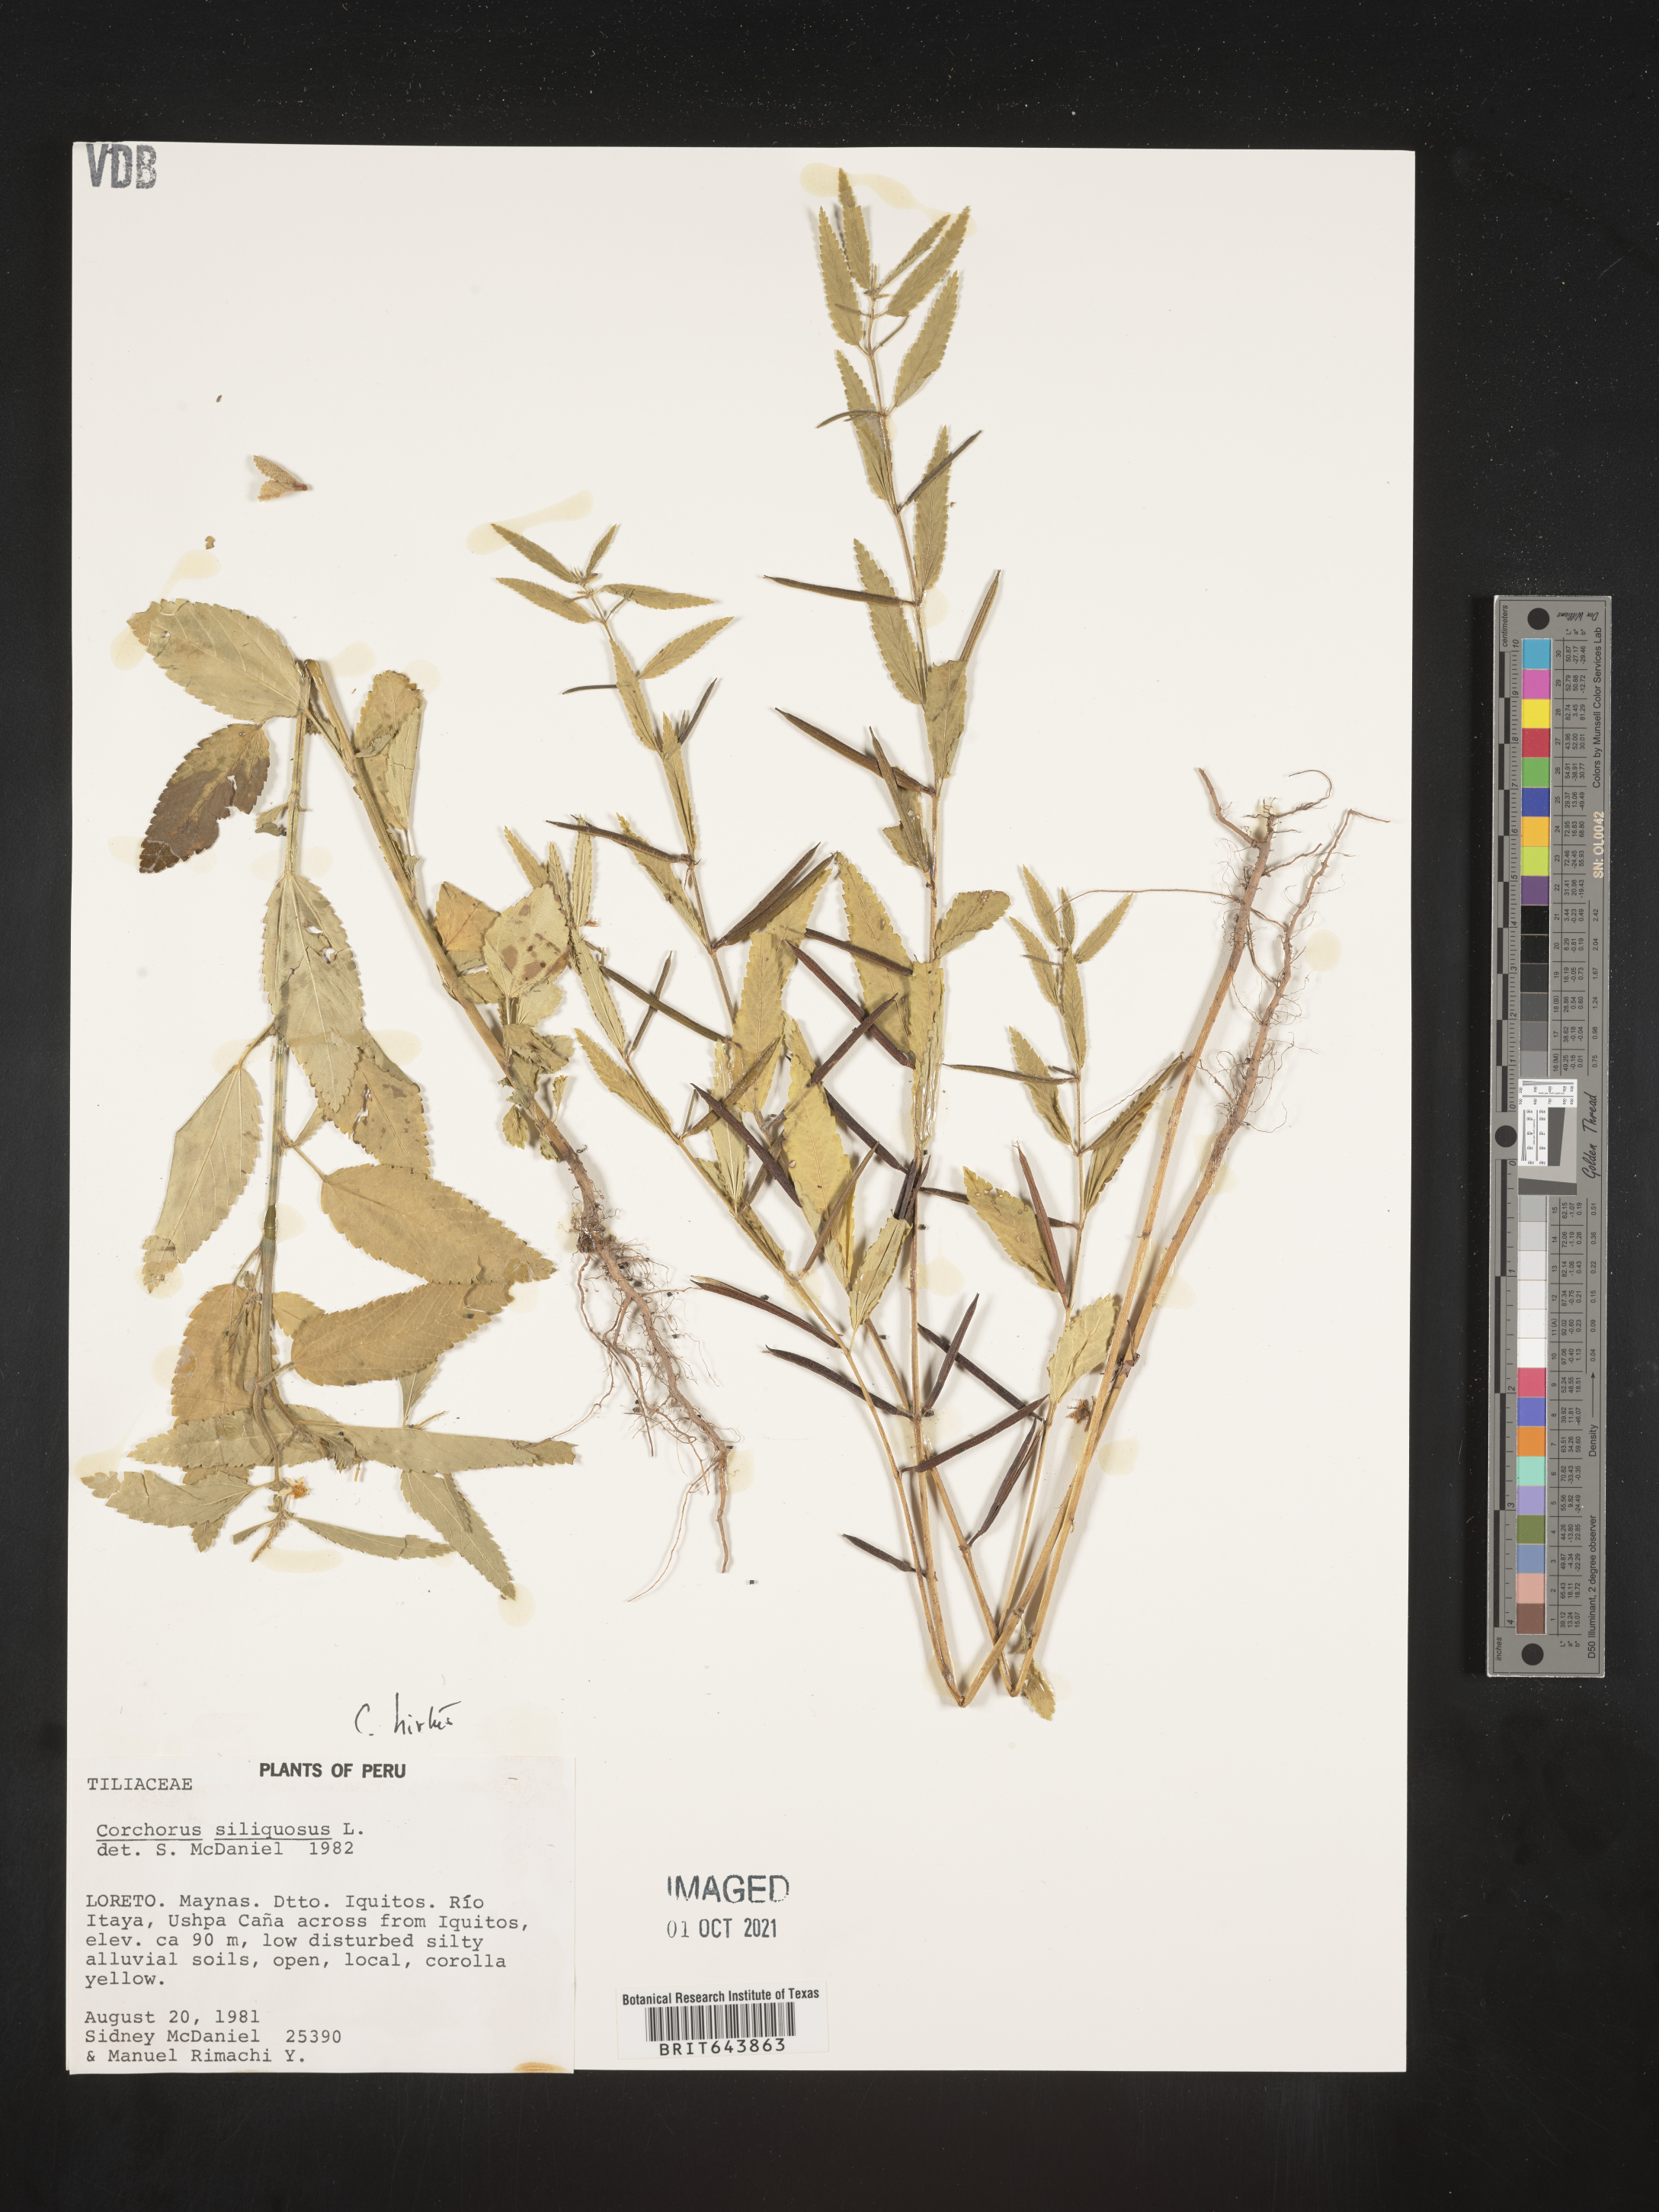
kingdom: Plantae
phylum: Tracheophyta
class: Magnoliopsida
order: Malvales
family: Malvaceae
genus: Corchorus
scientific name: Corchorus
